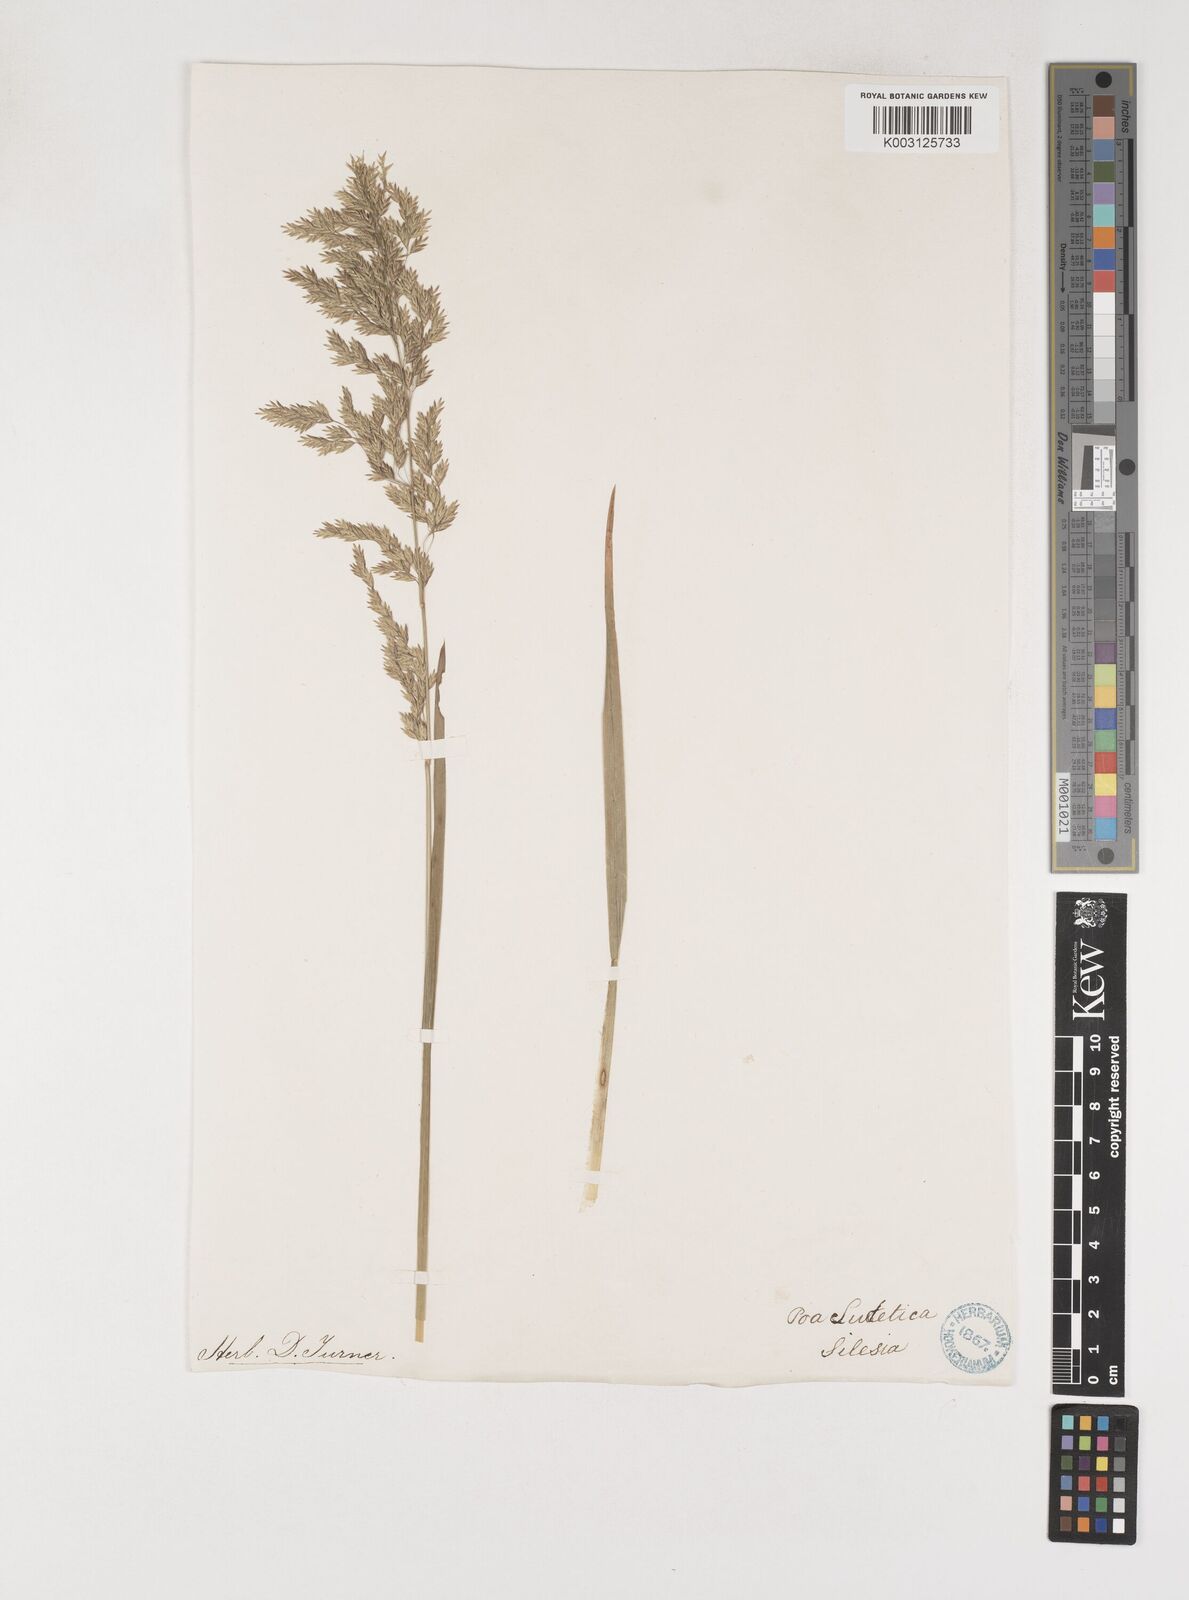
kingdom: Plantae
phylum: Tracheophyta
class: Liliopsida
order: Poales
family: Poaceae
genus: Poa
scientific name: Poa chaixii
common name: Broad-leaved meadow-grass
